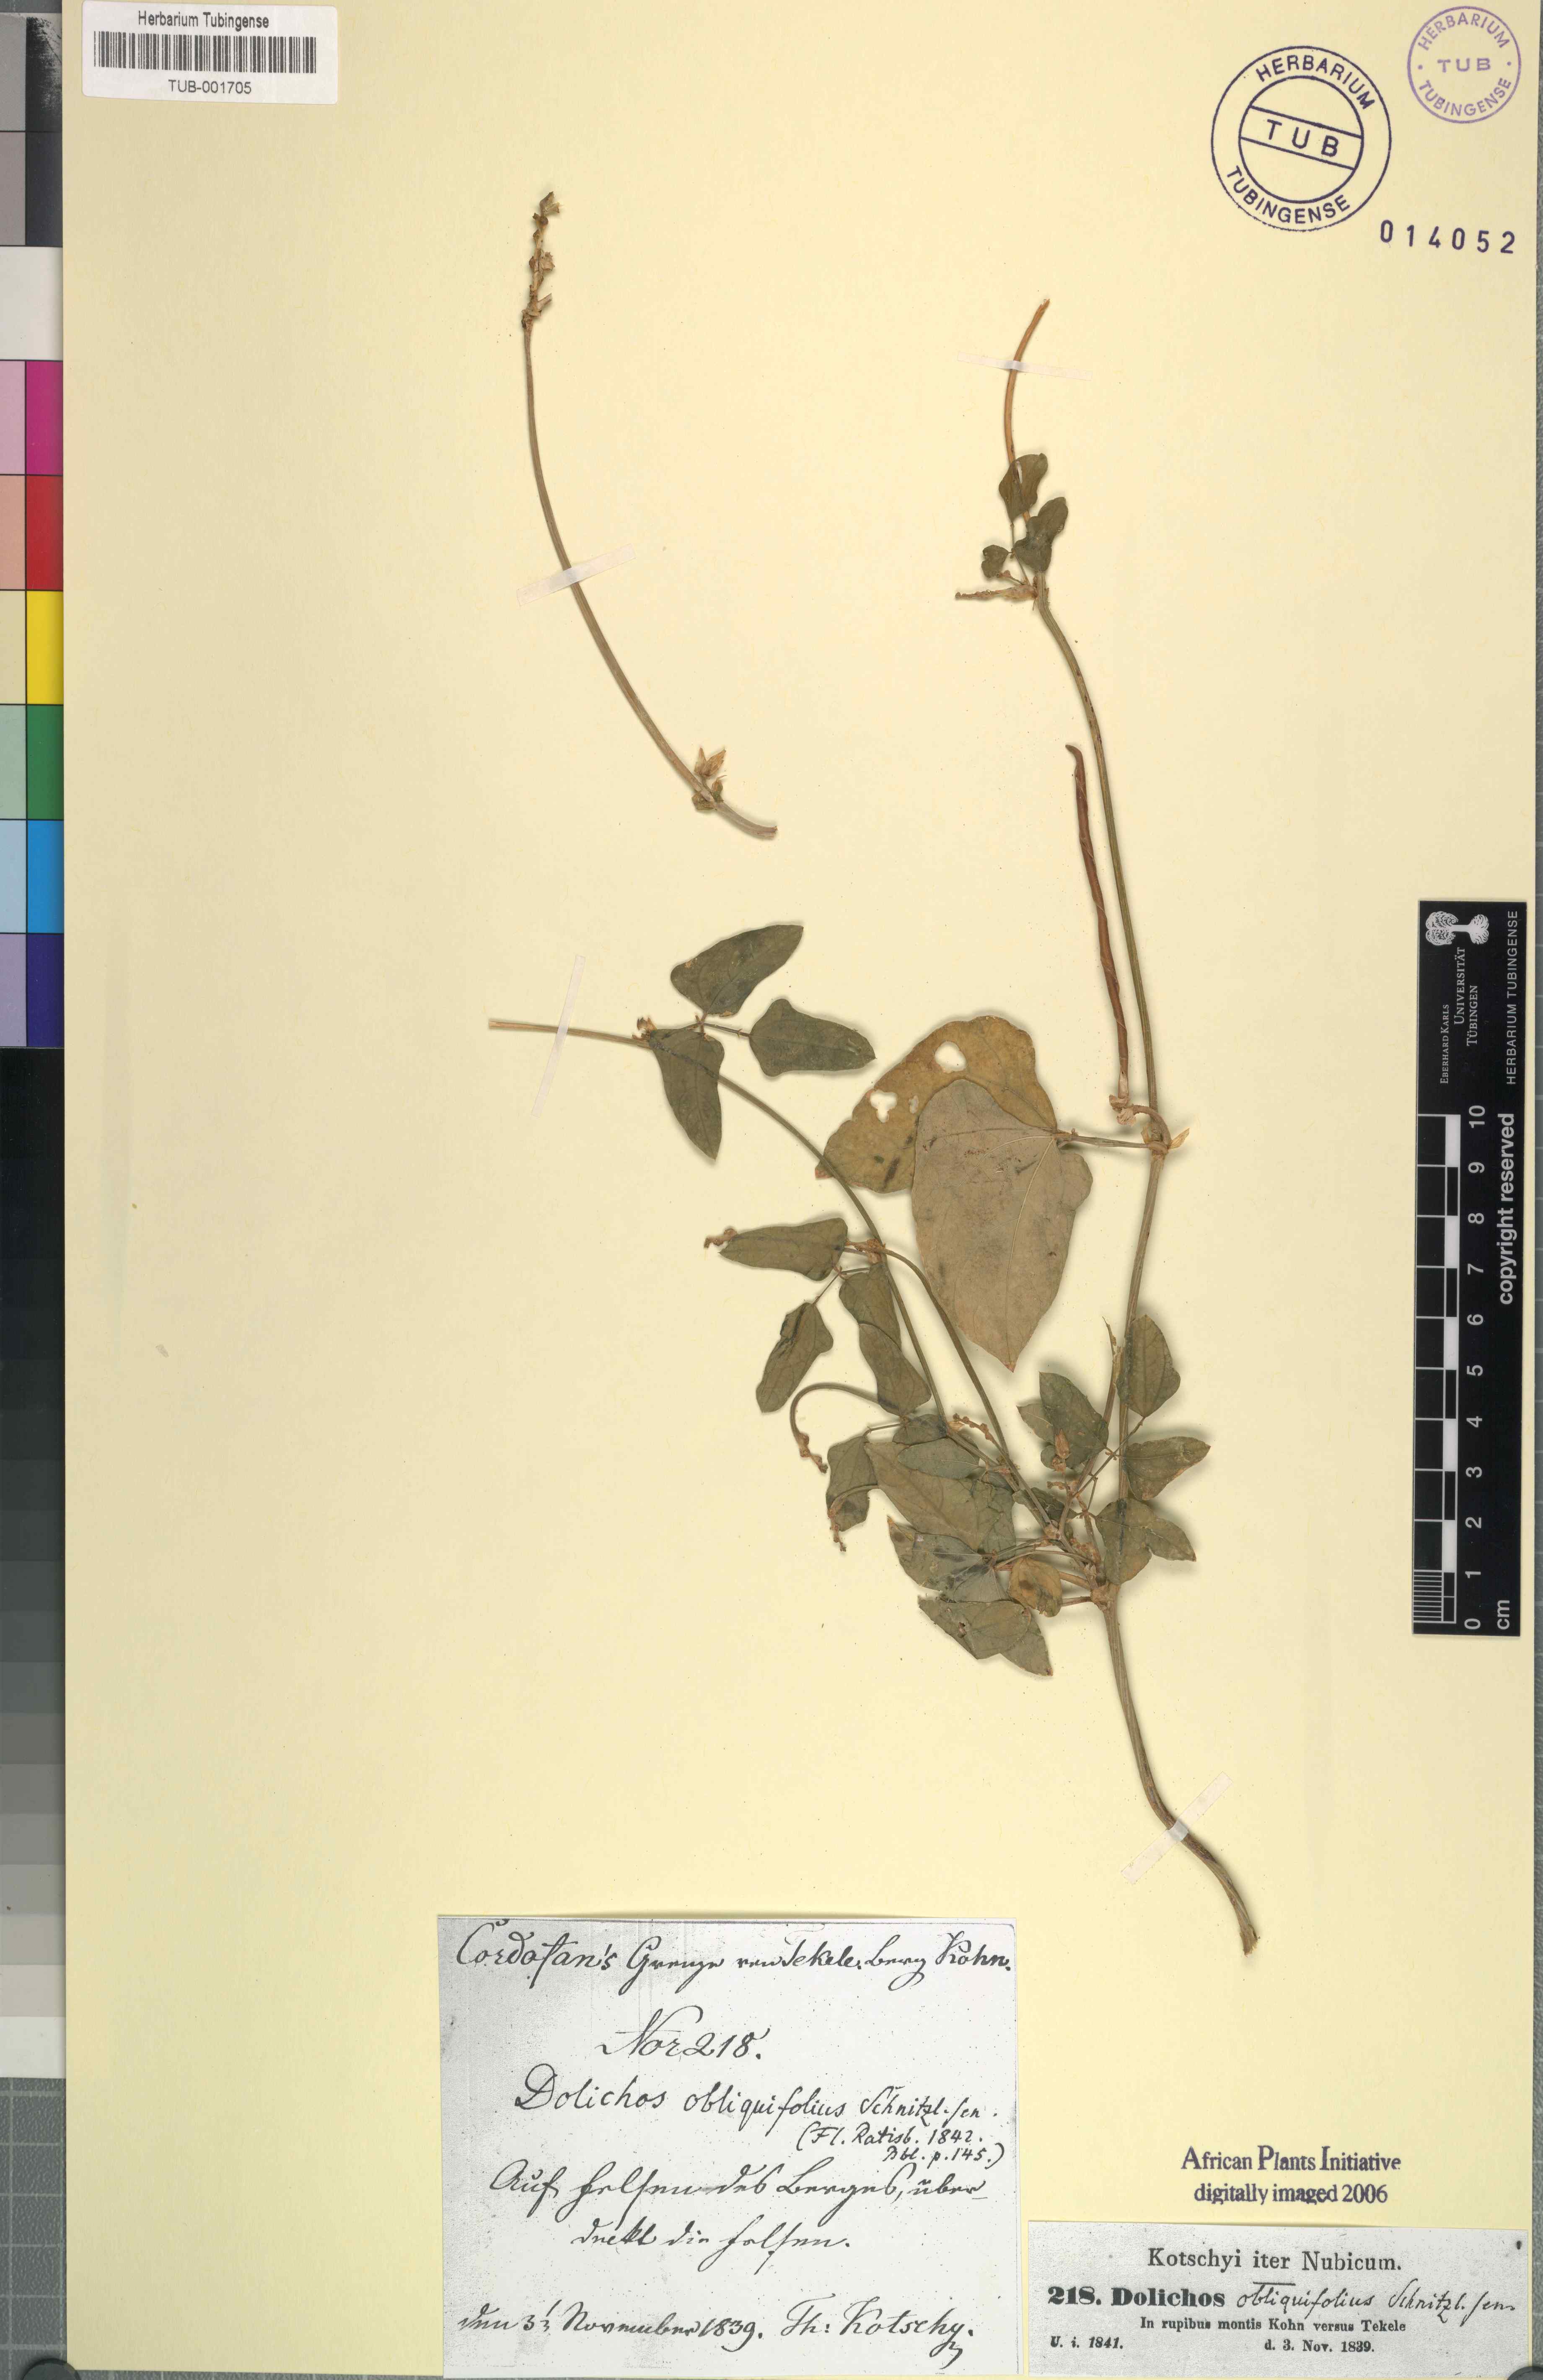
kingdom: Plantae
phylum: Tracheophyta
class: Magnoliopsida
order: Fabales
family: Fabaceae
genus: Vigna
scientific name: Vigna unguiculata
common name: Cowpea
